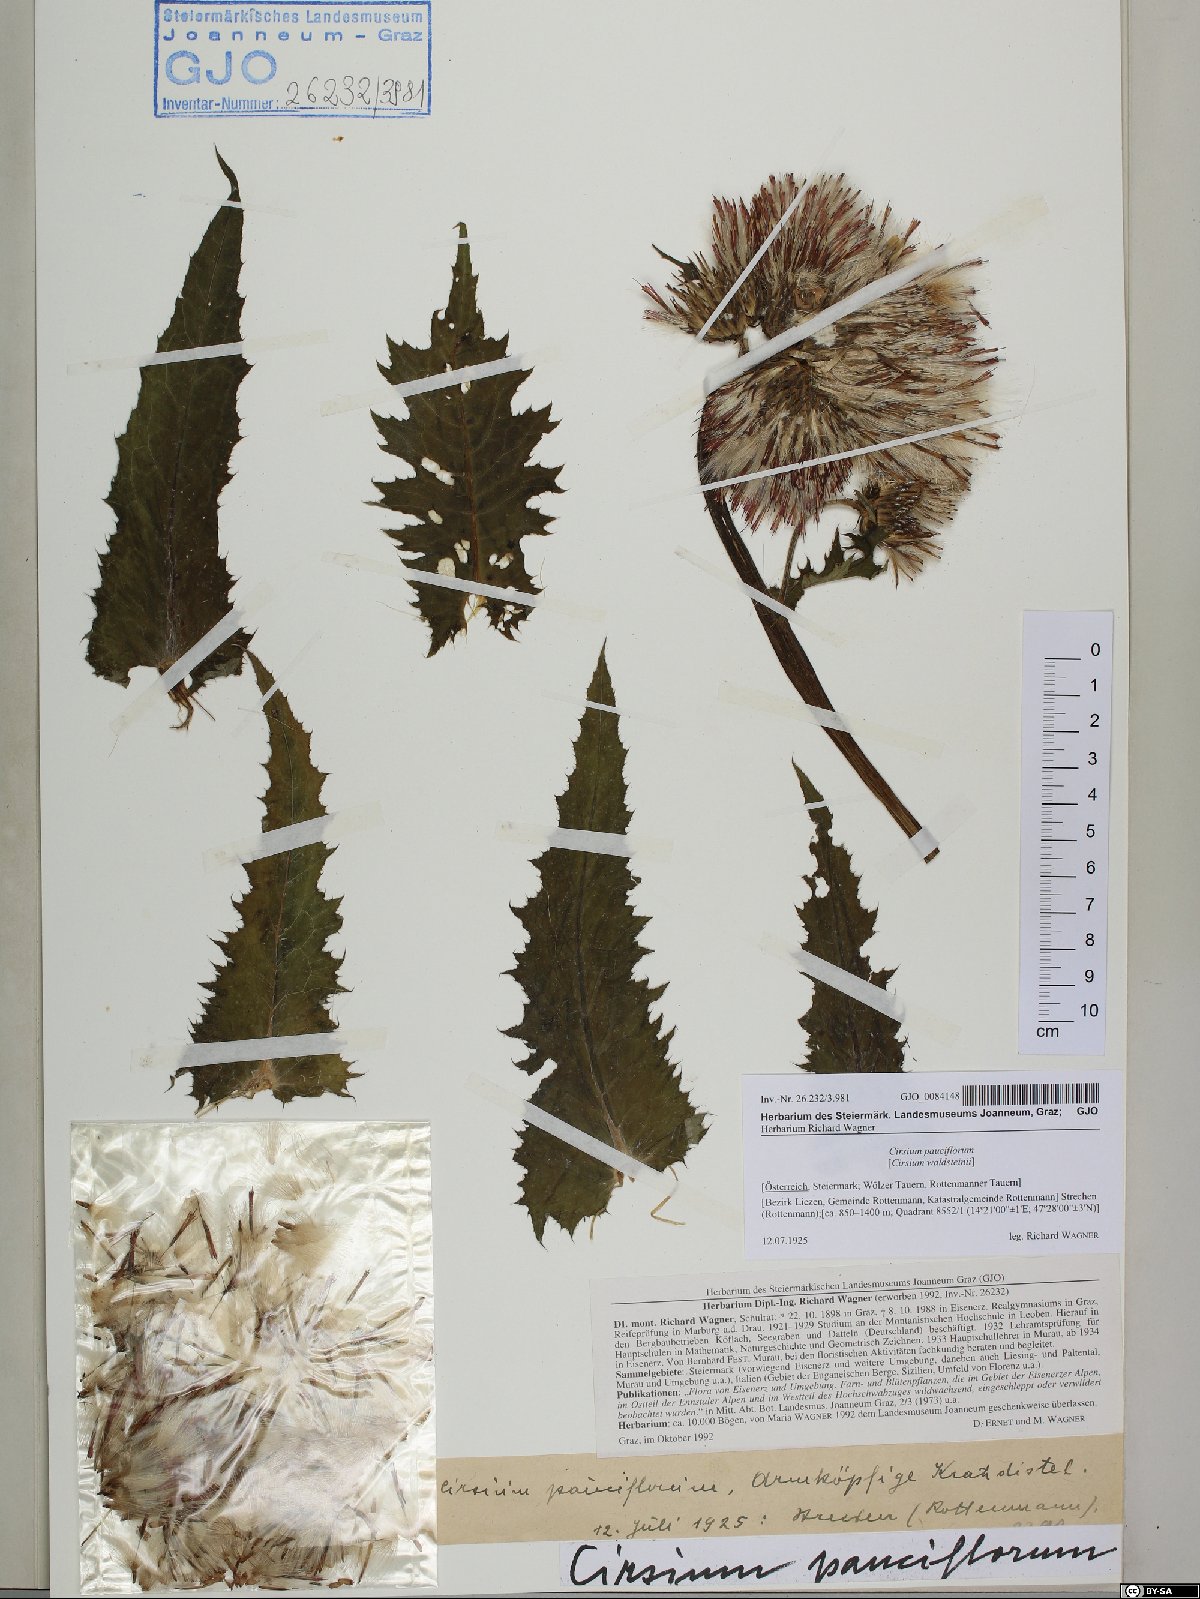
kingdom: Plantae
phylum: Tracheophyta
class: Magnoliopsida
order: Asterales
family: Asteraceae
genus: Cirsium
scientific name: Cirsium greimleri
